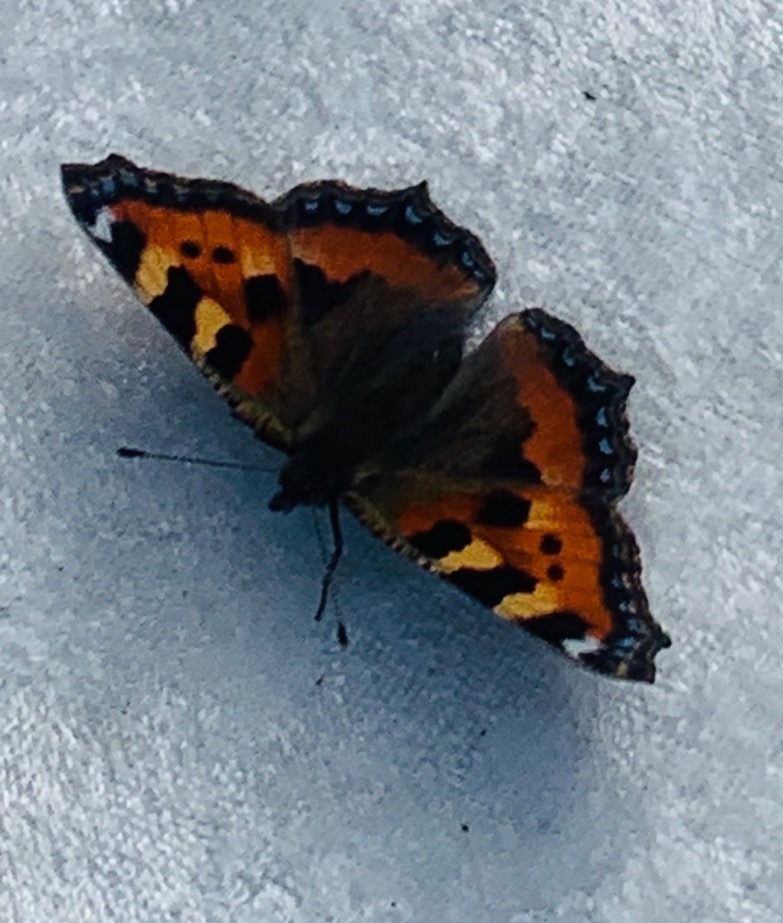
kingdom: Animalia
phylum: Arthropoda
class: Insecta
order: Lepidoptera
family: Nymphalidae
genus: Aglais
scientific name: Aglais urticae
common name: Nældens takvinge
